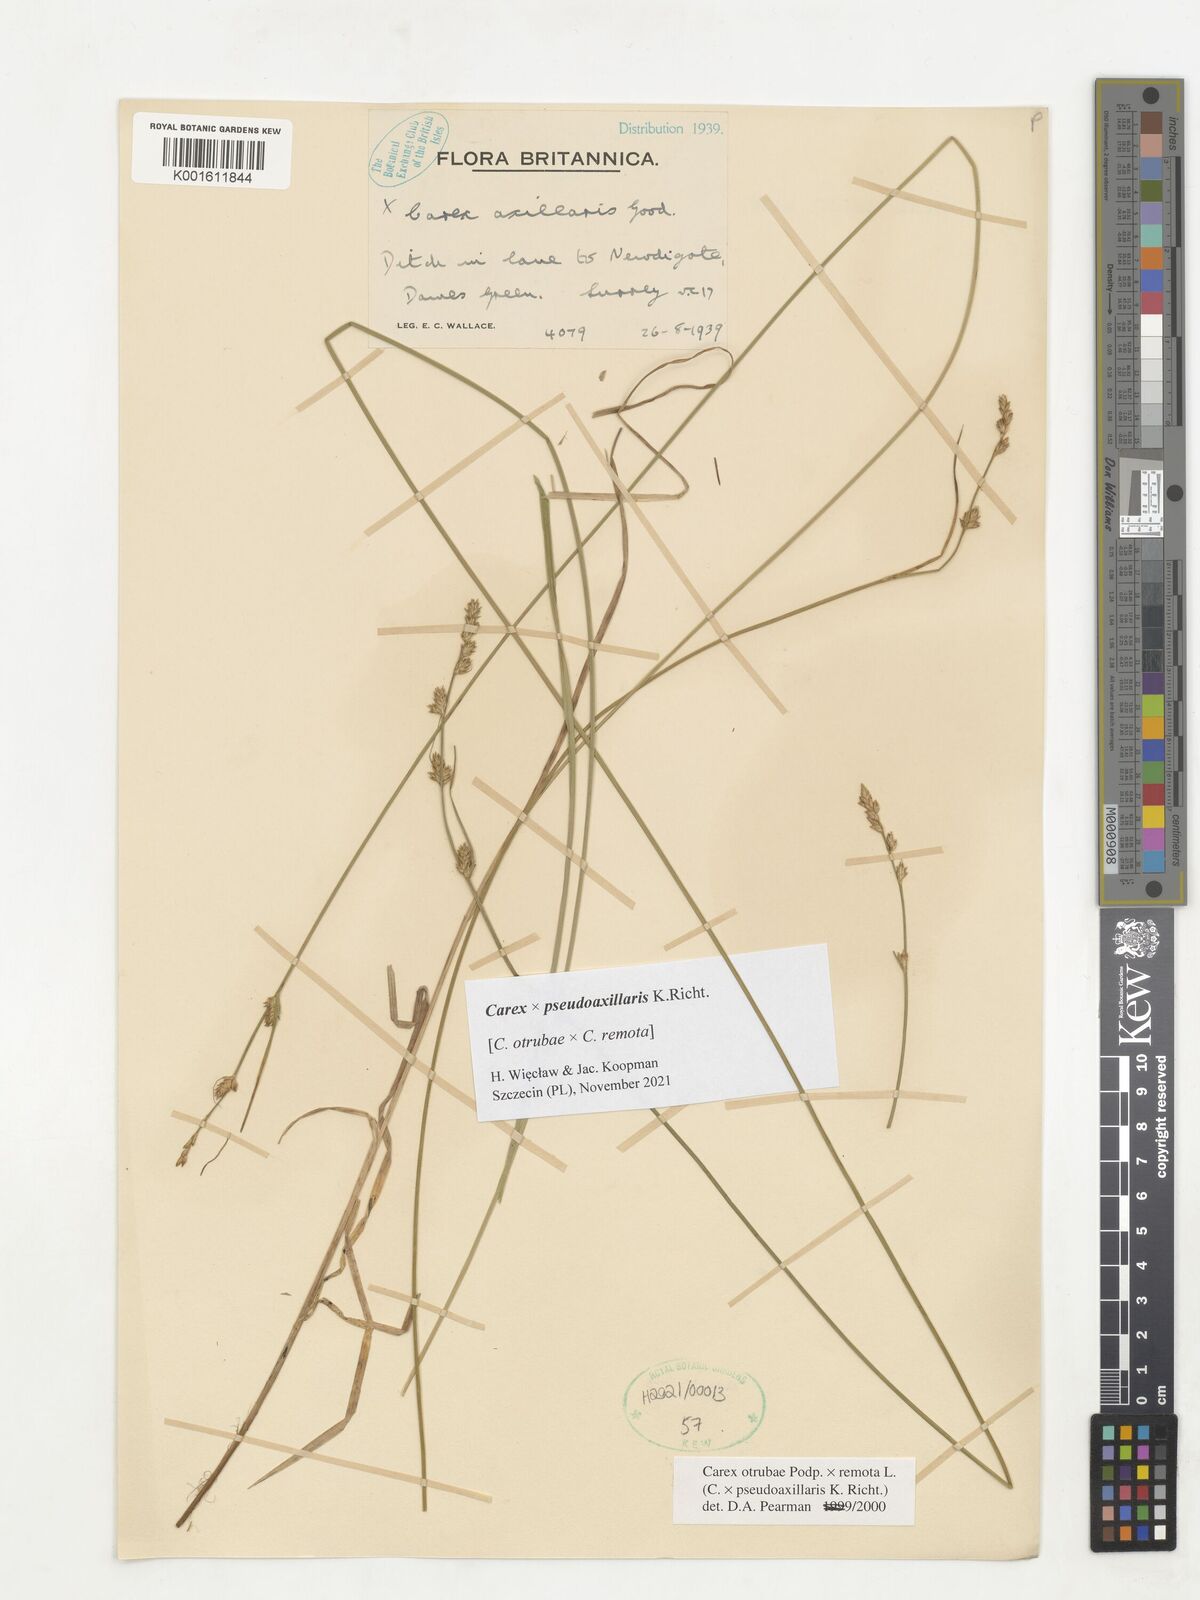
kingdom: Plantae
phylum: Tracheophyta
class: Liliopsida
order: Poales
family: Cyperaceae
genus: Carex
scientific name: Carex pseudoaxillaris
